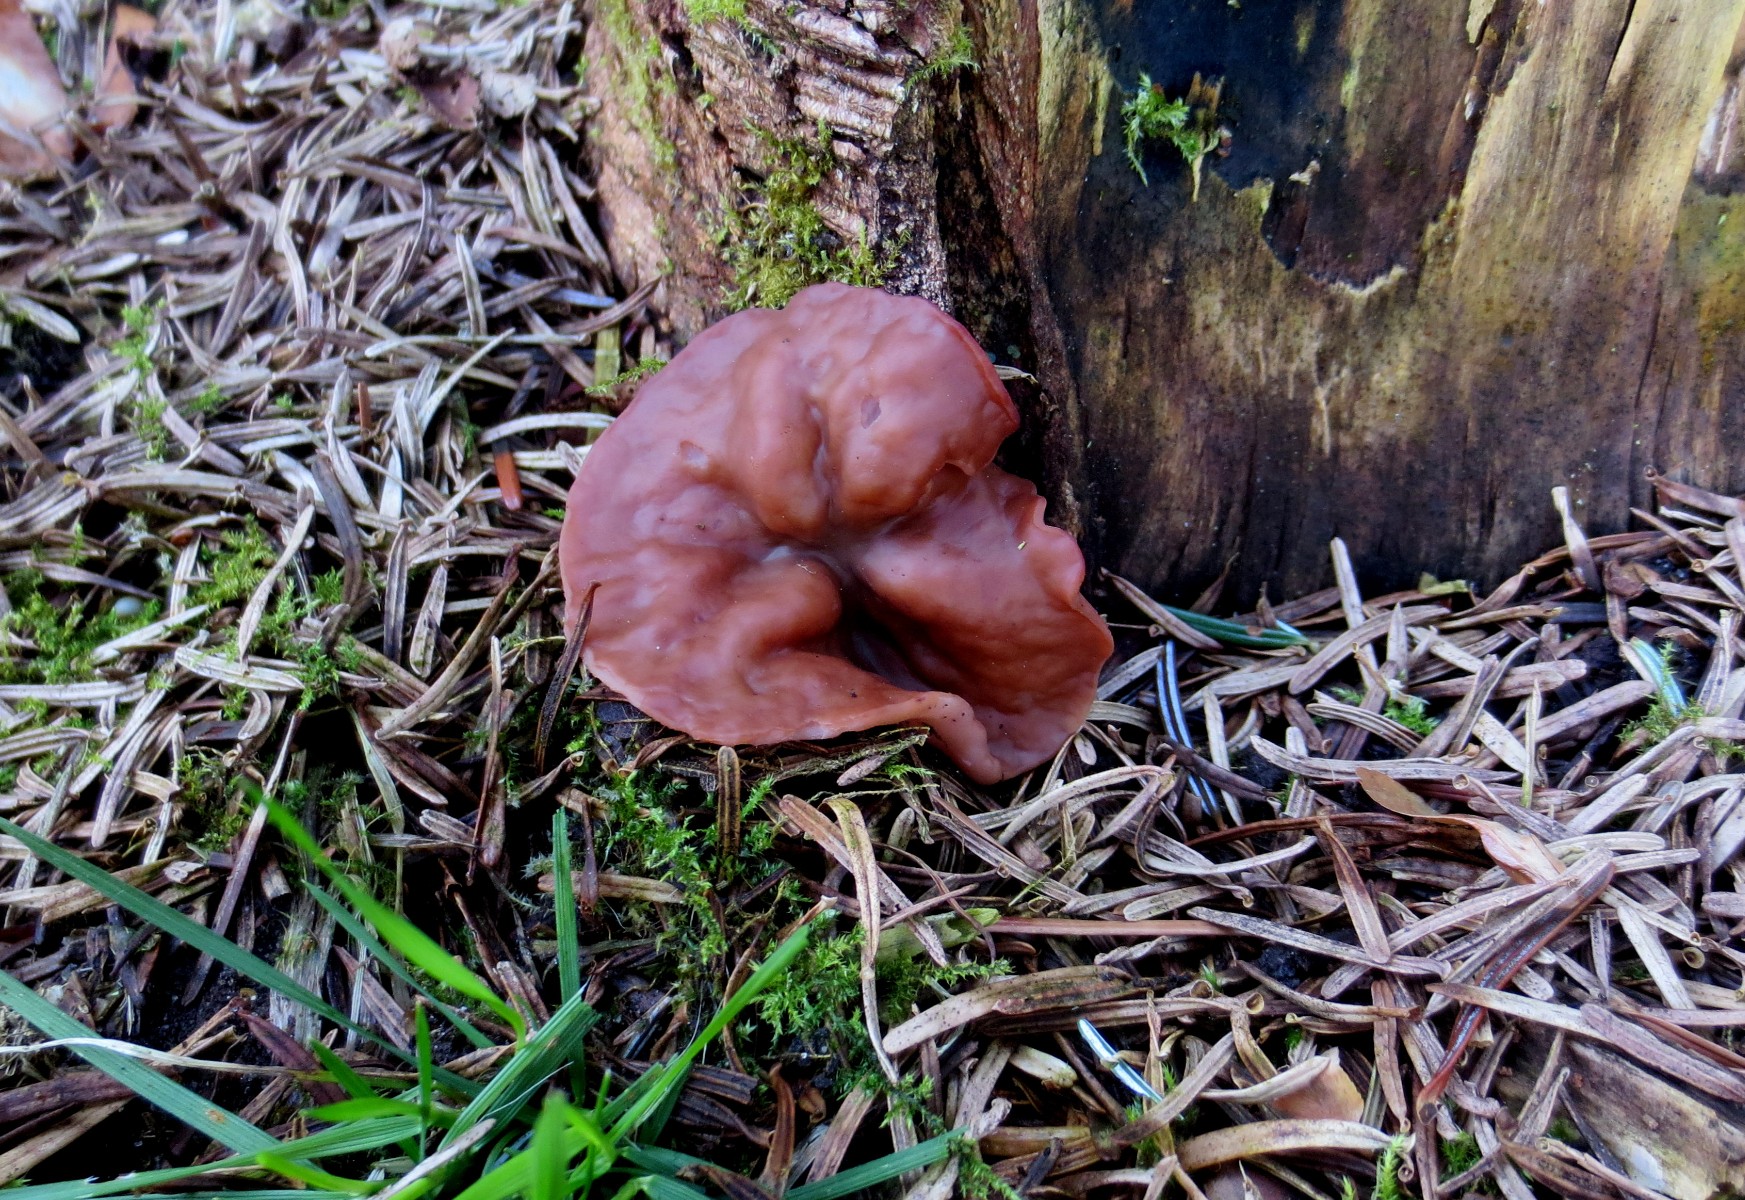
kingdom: Fungi
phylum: Ascomycota
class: Pezizomycetes
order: Pezizales
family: Discinaceae
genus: Discina
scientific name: Discina ancilis
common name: udbredt stenmorkel
